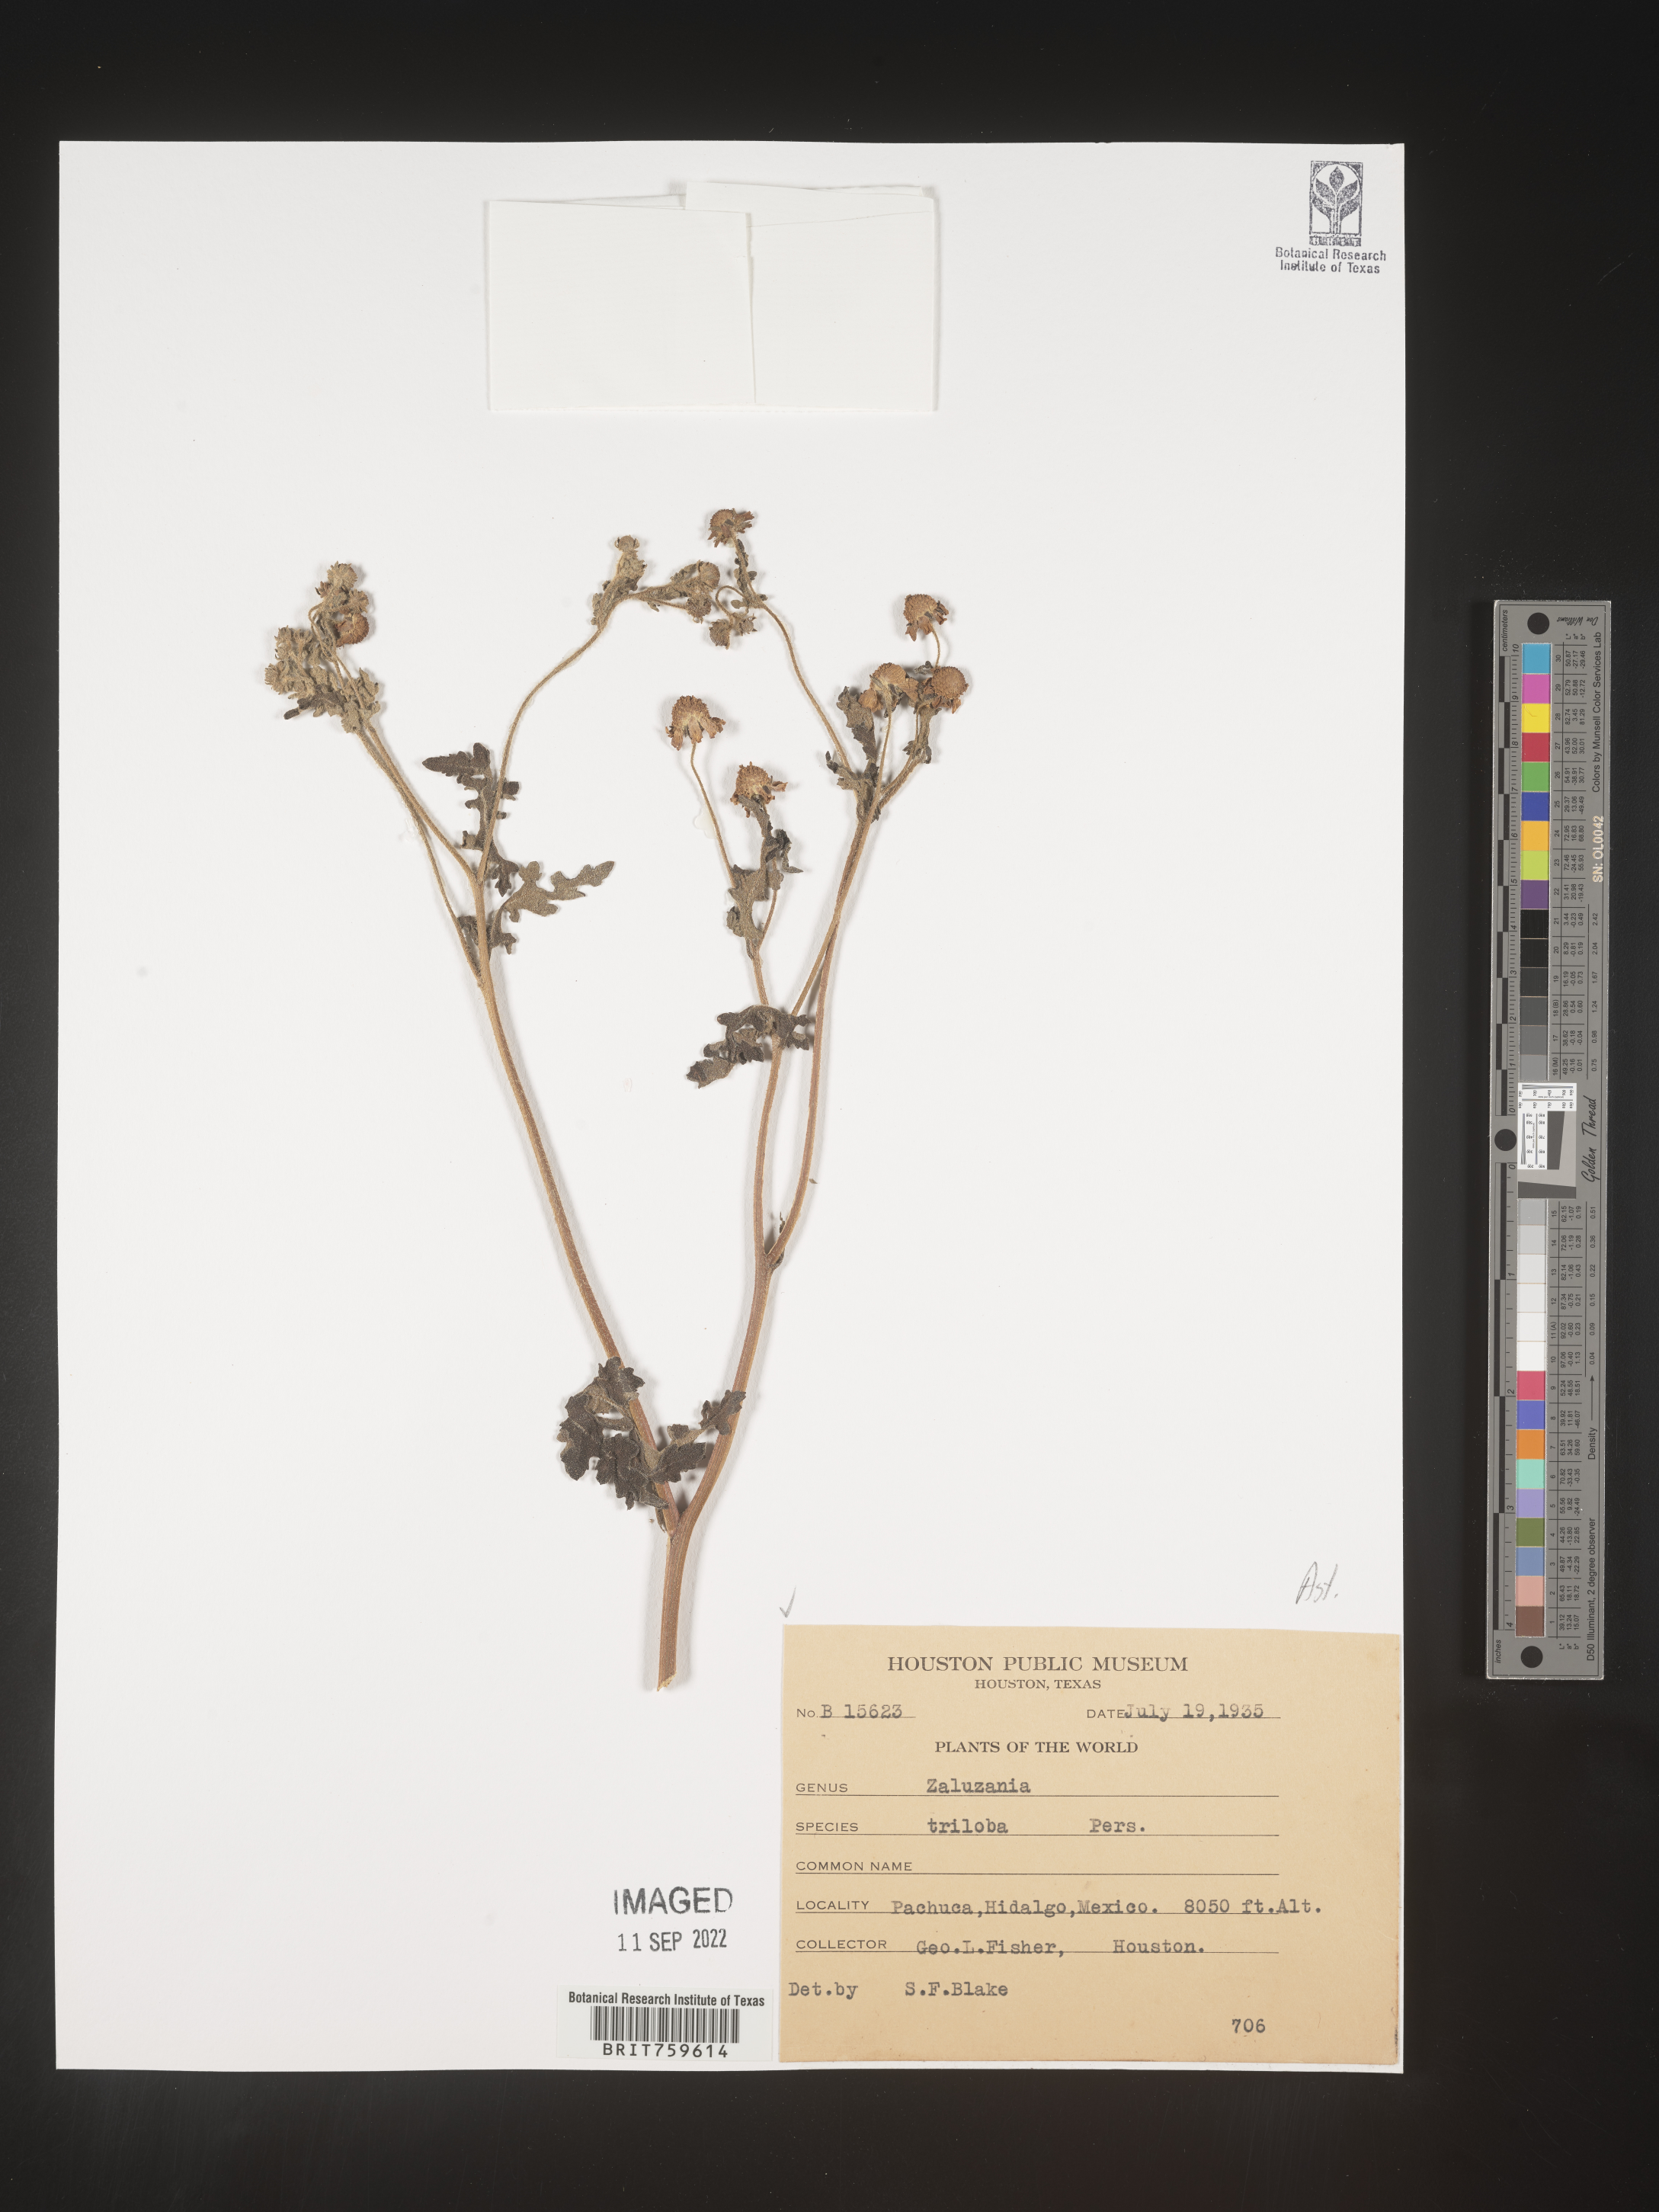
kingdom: Plantae
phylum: Tracheophyta
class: Magnoliopsida
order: Asterales
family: Asteraceae
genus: Zaluzania
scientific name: Zaluzania
